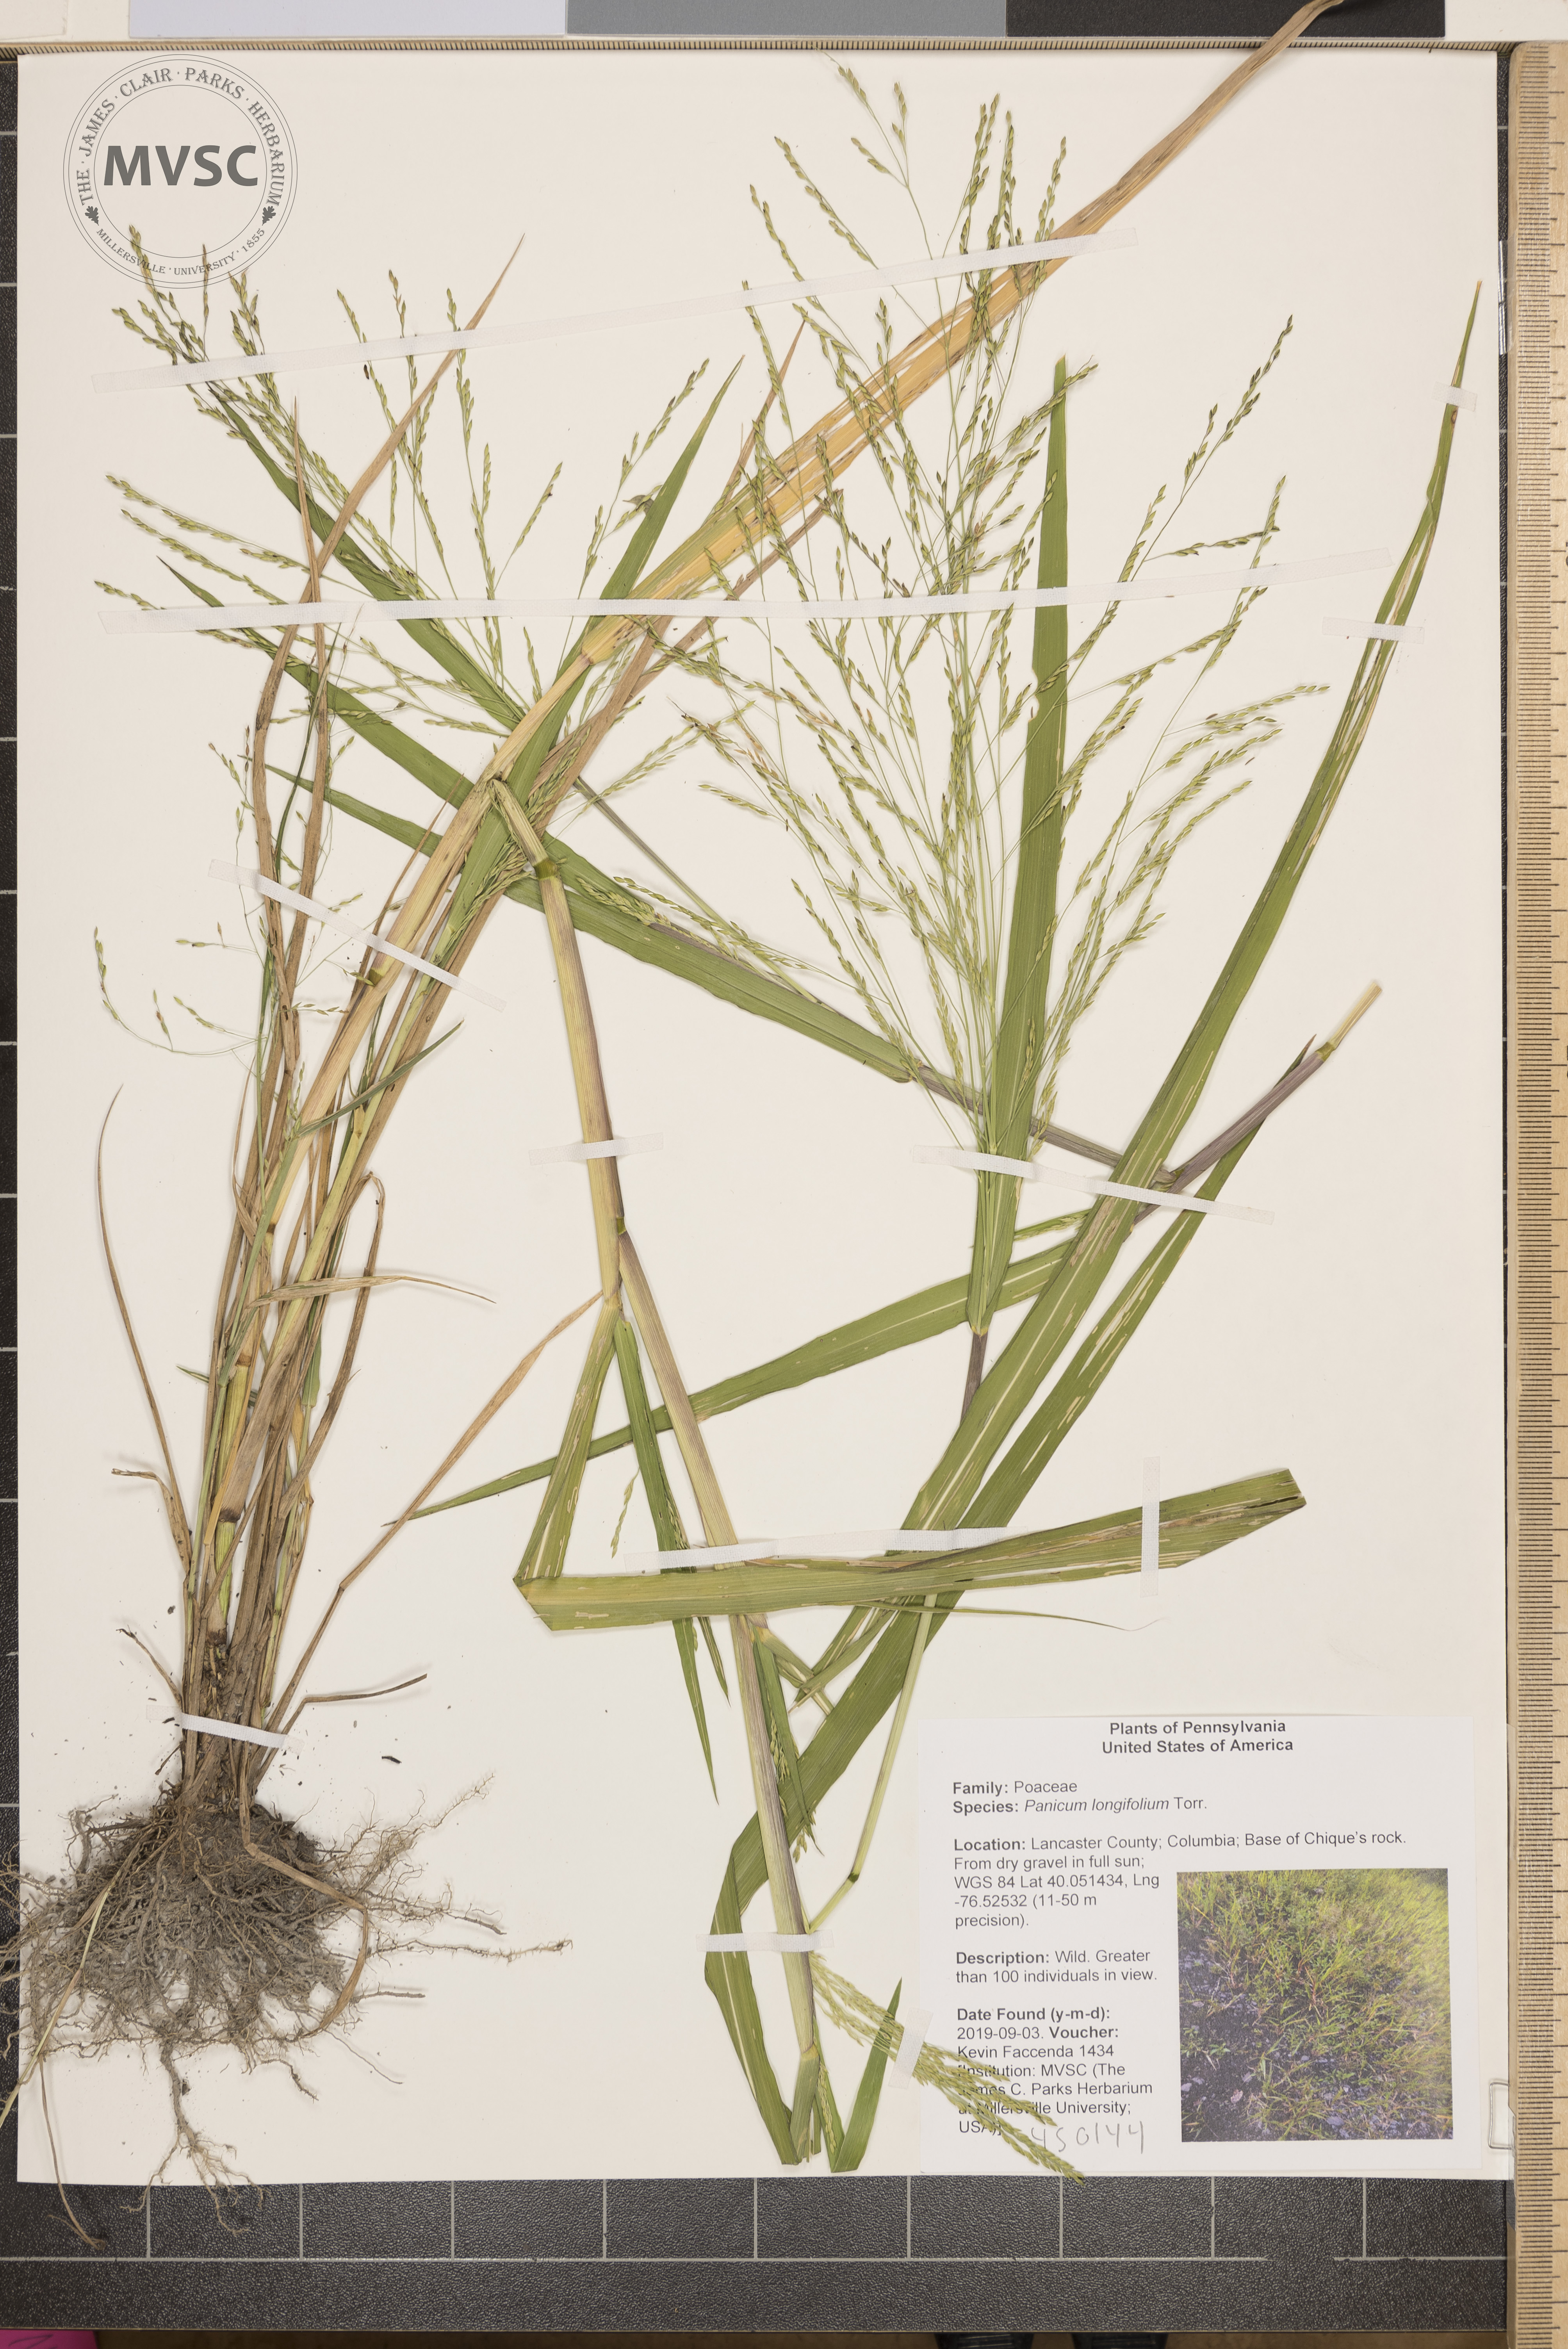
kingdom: Plantae
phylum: Tracheophyta
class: Liliopsida
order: Poales
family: Poaceae
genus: Coleataenia
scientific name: Coleataenia longifolia
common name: Long-leaved panicgrass
